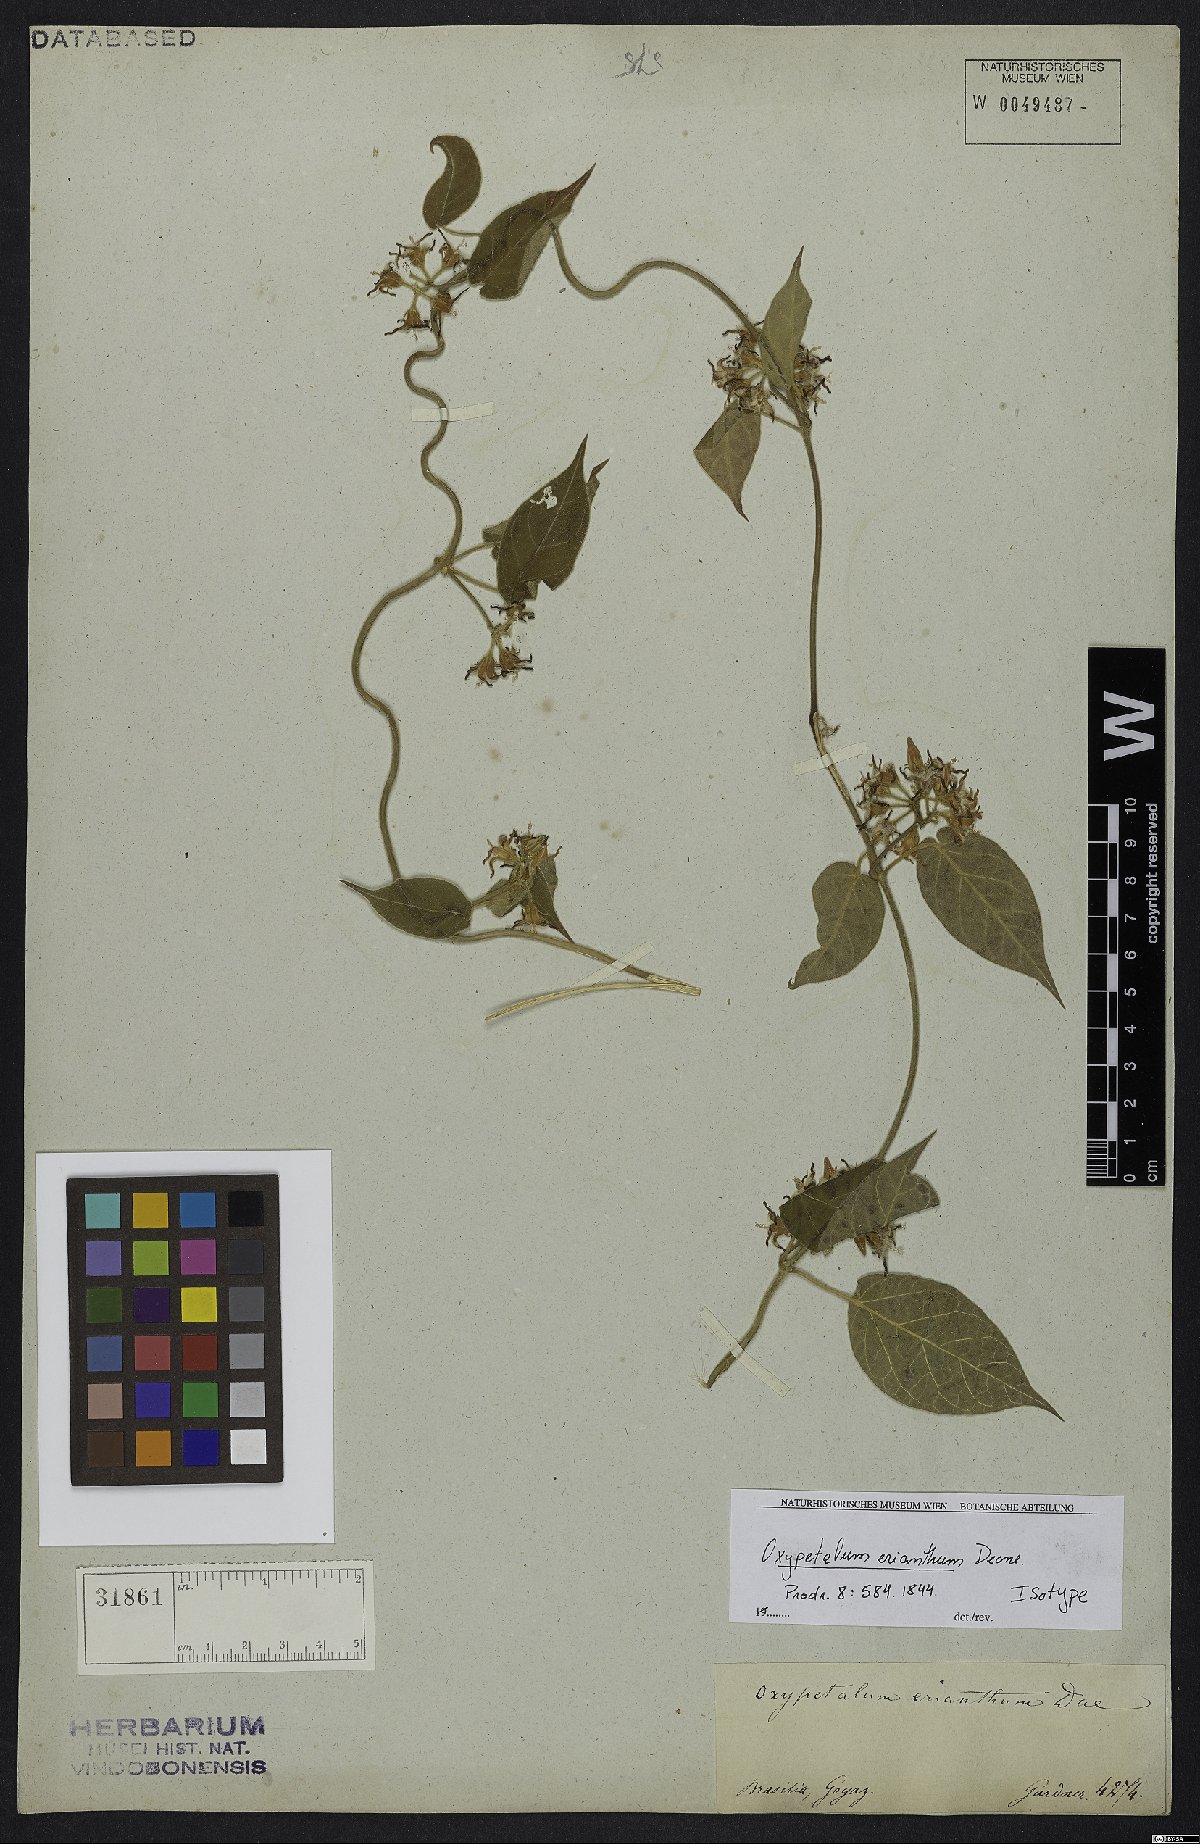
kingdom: Plantae
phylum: Tracheophyta
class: Magnoliopsida
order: Gentianales
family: Apocynaceae
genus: Oxypetalum
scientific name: Oxypetalum erianthum
